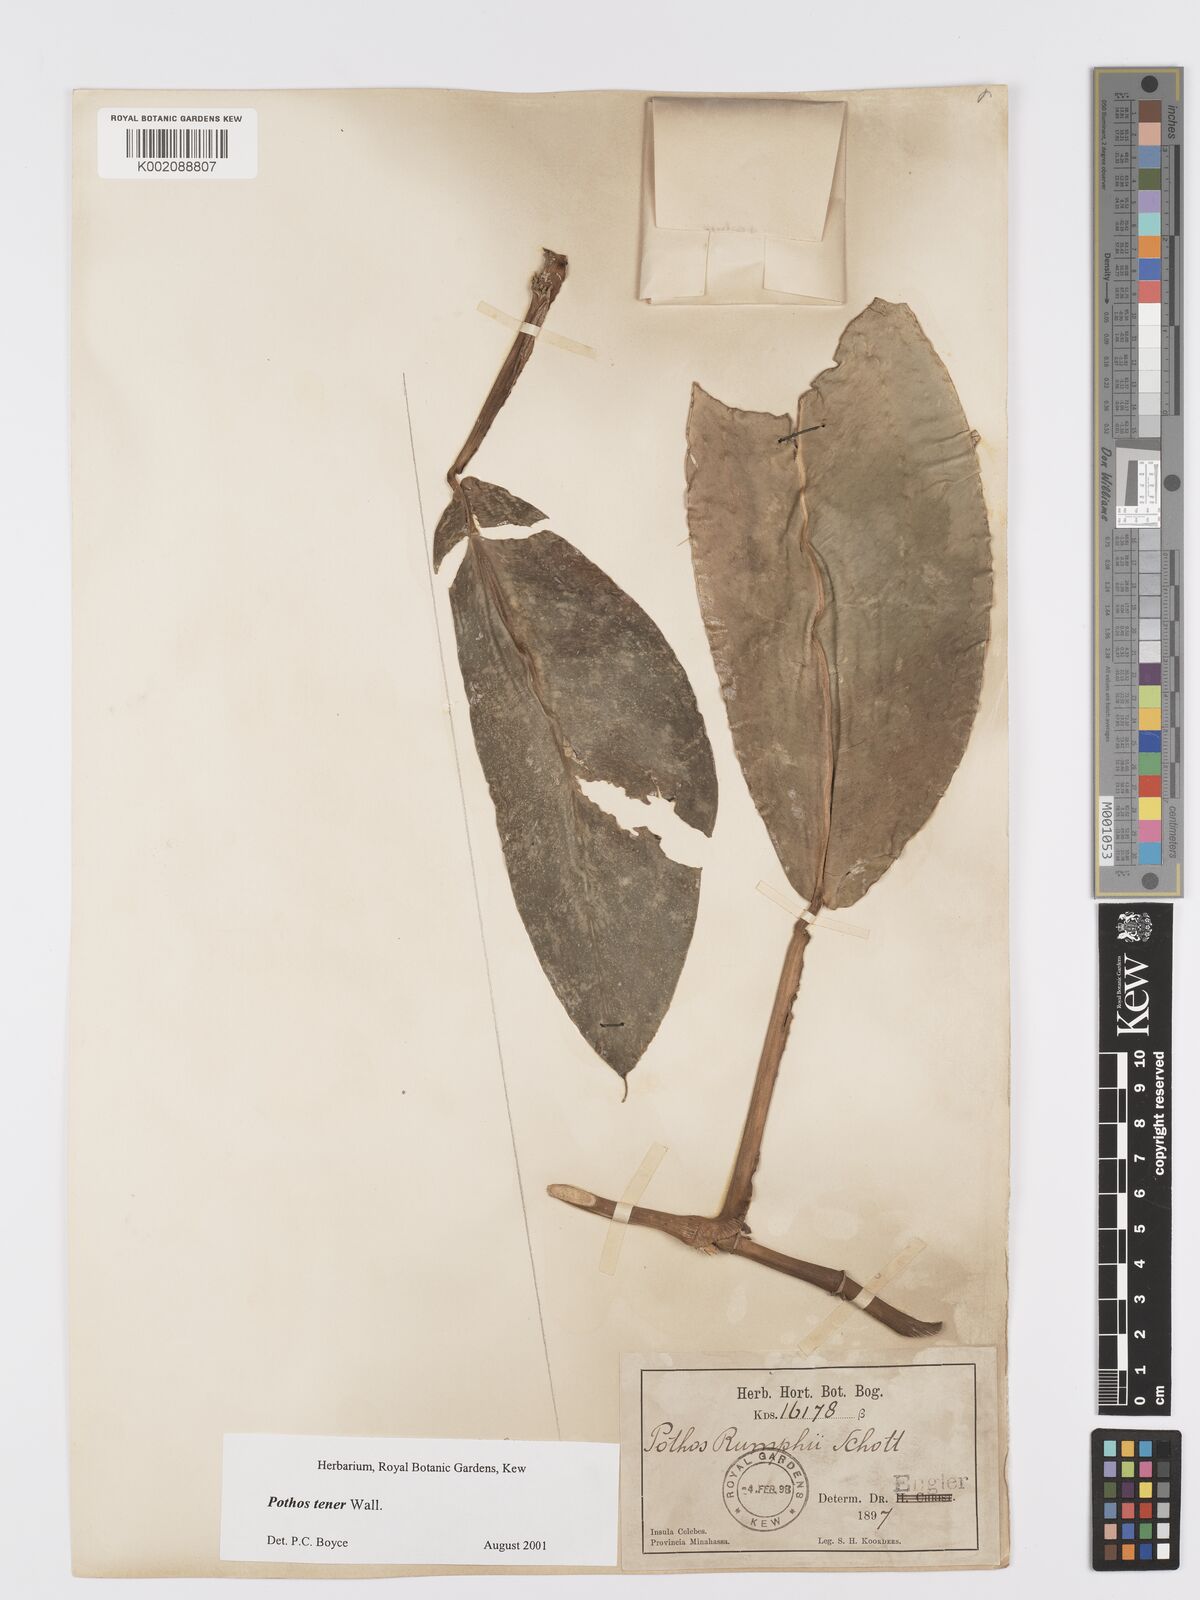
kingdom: Plantae
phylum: Tracheophyta
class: Liliopsida
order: Alismatales
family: Araceae
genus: Pothos
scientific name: Pothos tener
